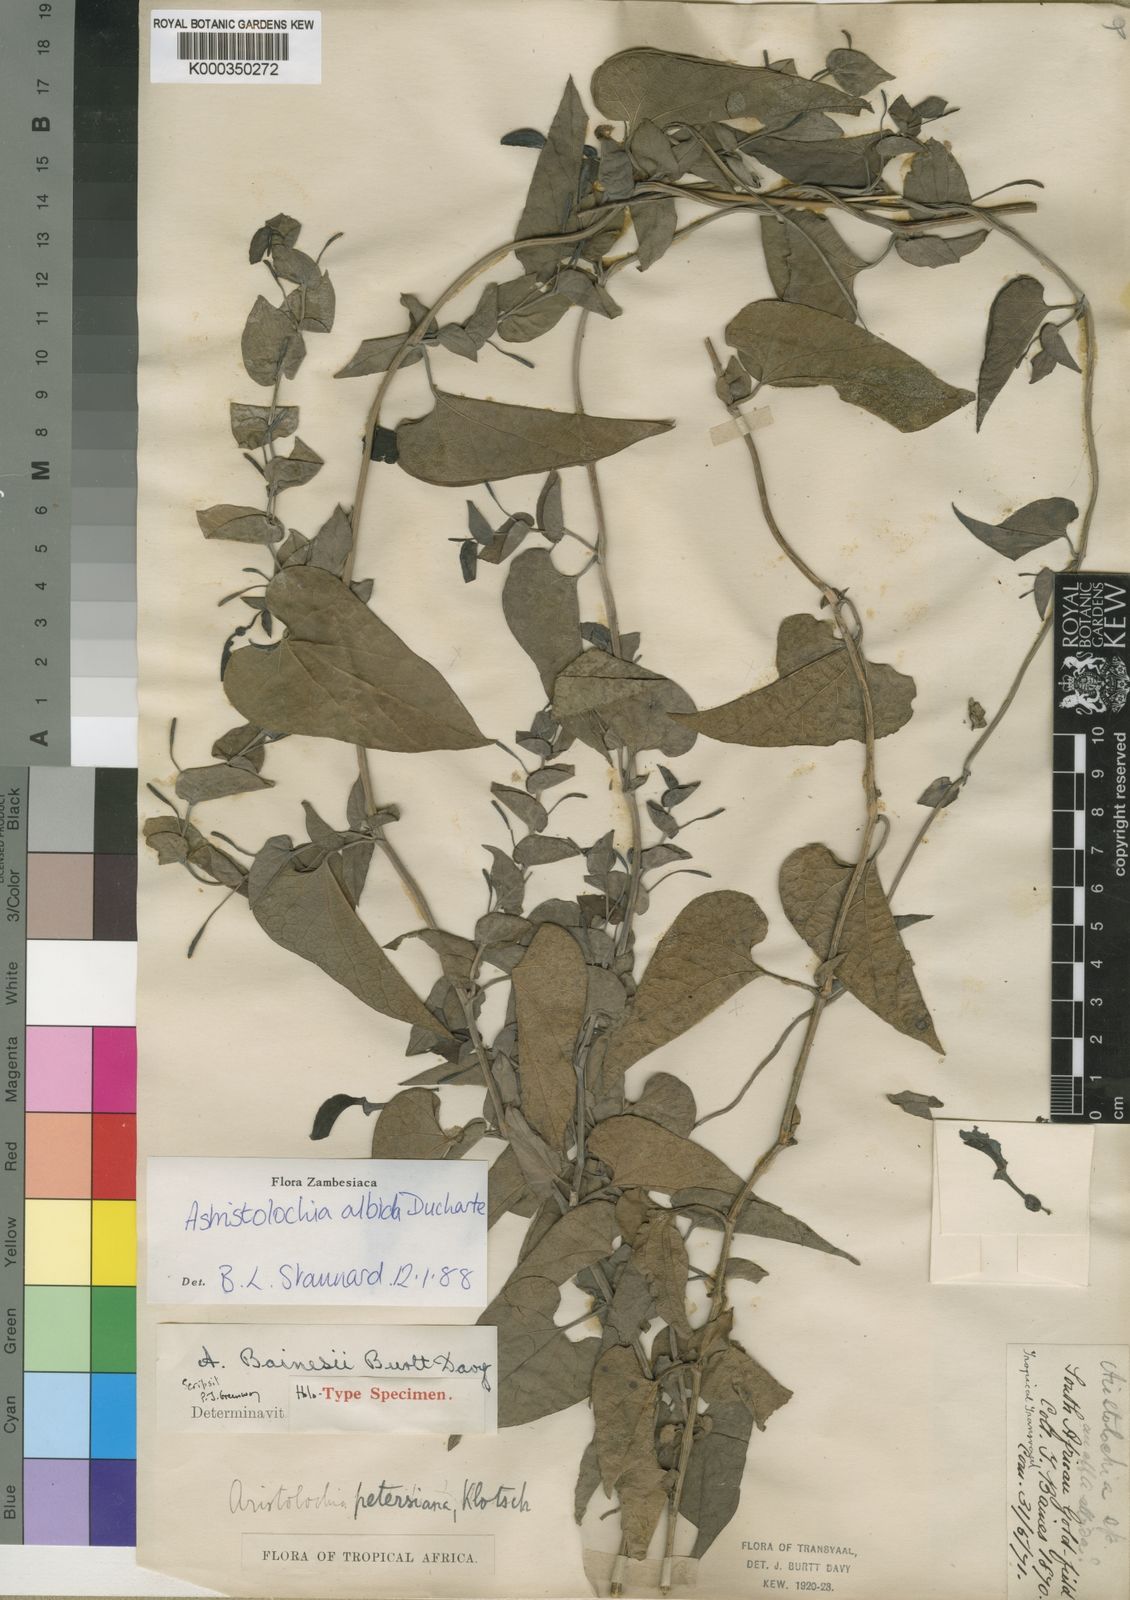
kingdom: Plantae
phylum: Tracheophyta
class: Magnoliopsida
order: Piperales
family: Aristolochiaceae
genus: Aristolochia
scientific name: Aristolochia albida
